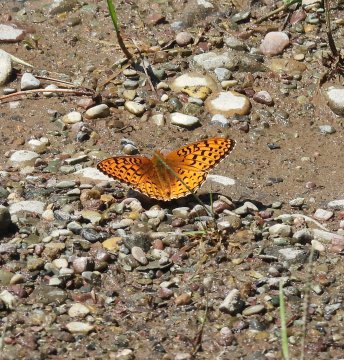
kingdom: Animalia
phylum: Arthropoda
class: Insecta
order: Lepidoptera
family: Nymphalidae
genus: Speyeria
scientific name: Speyeria aphrodite
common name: Aphrodite Fritillary
